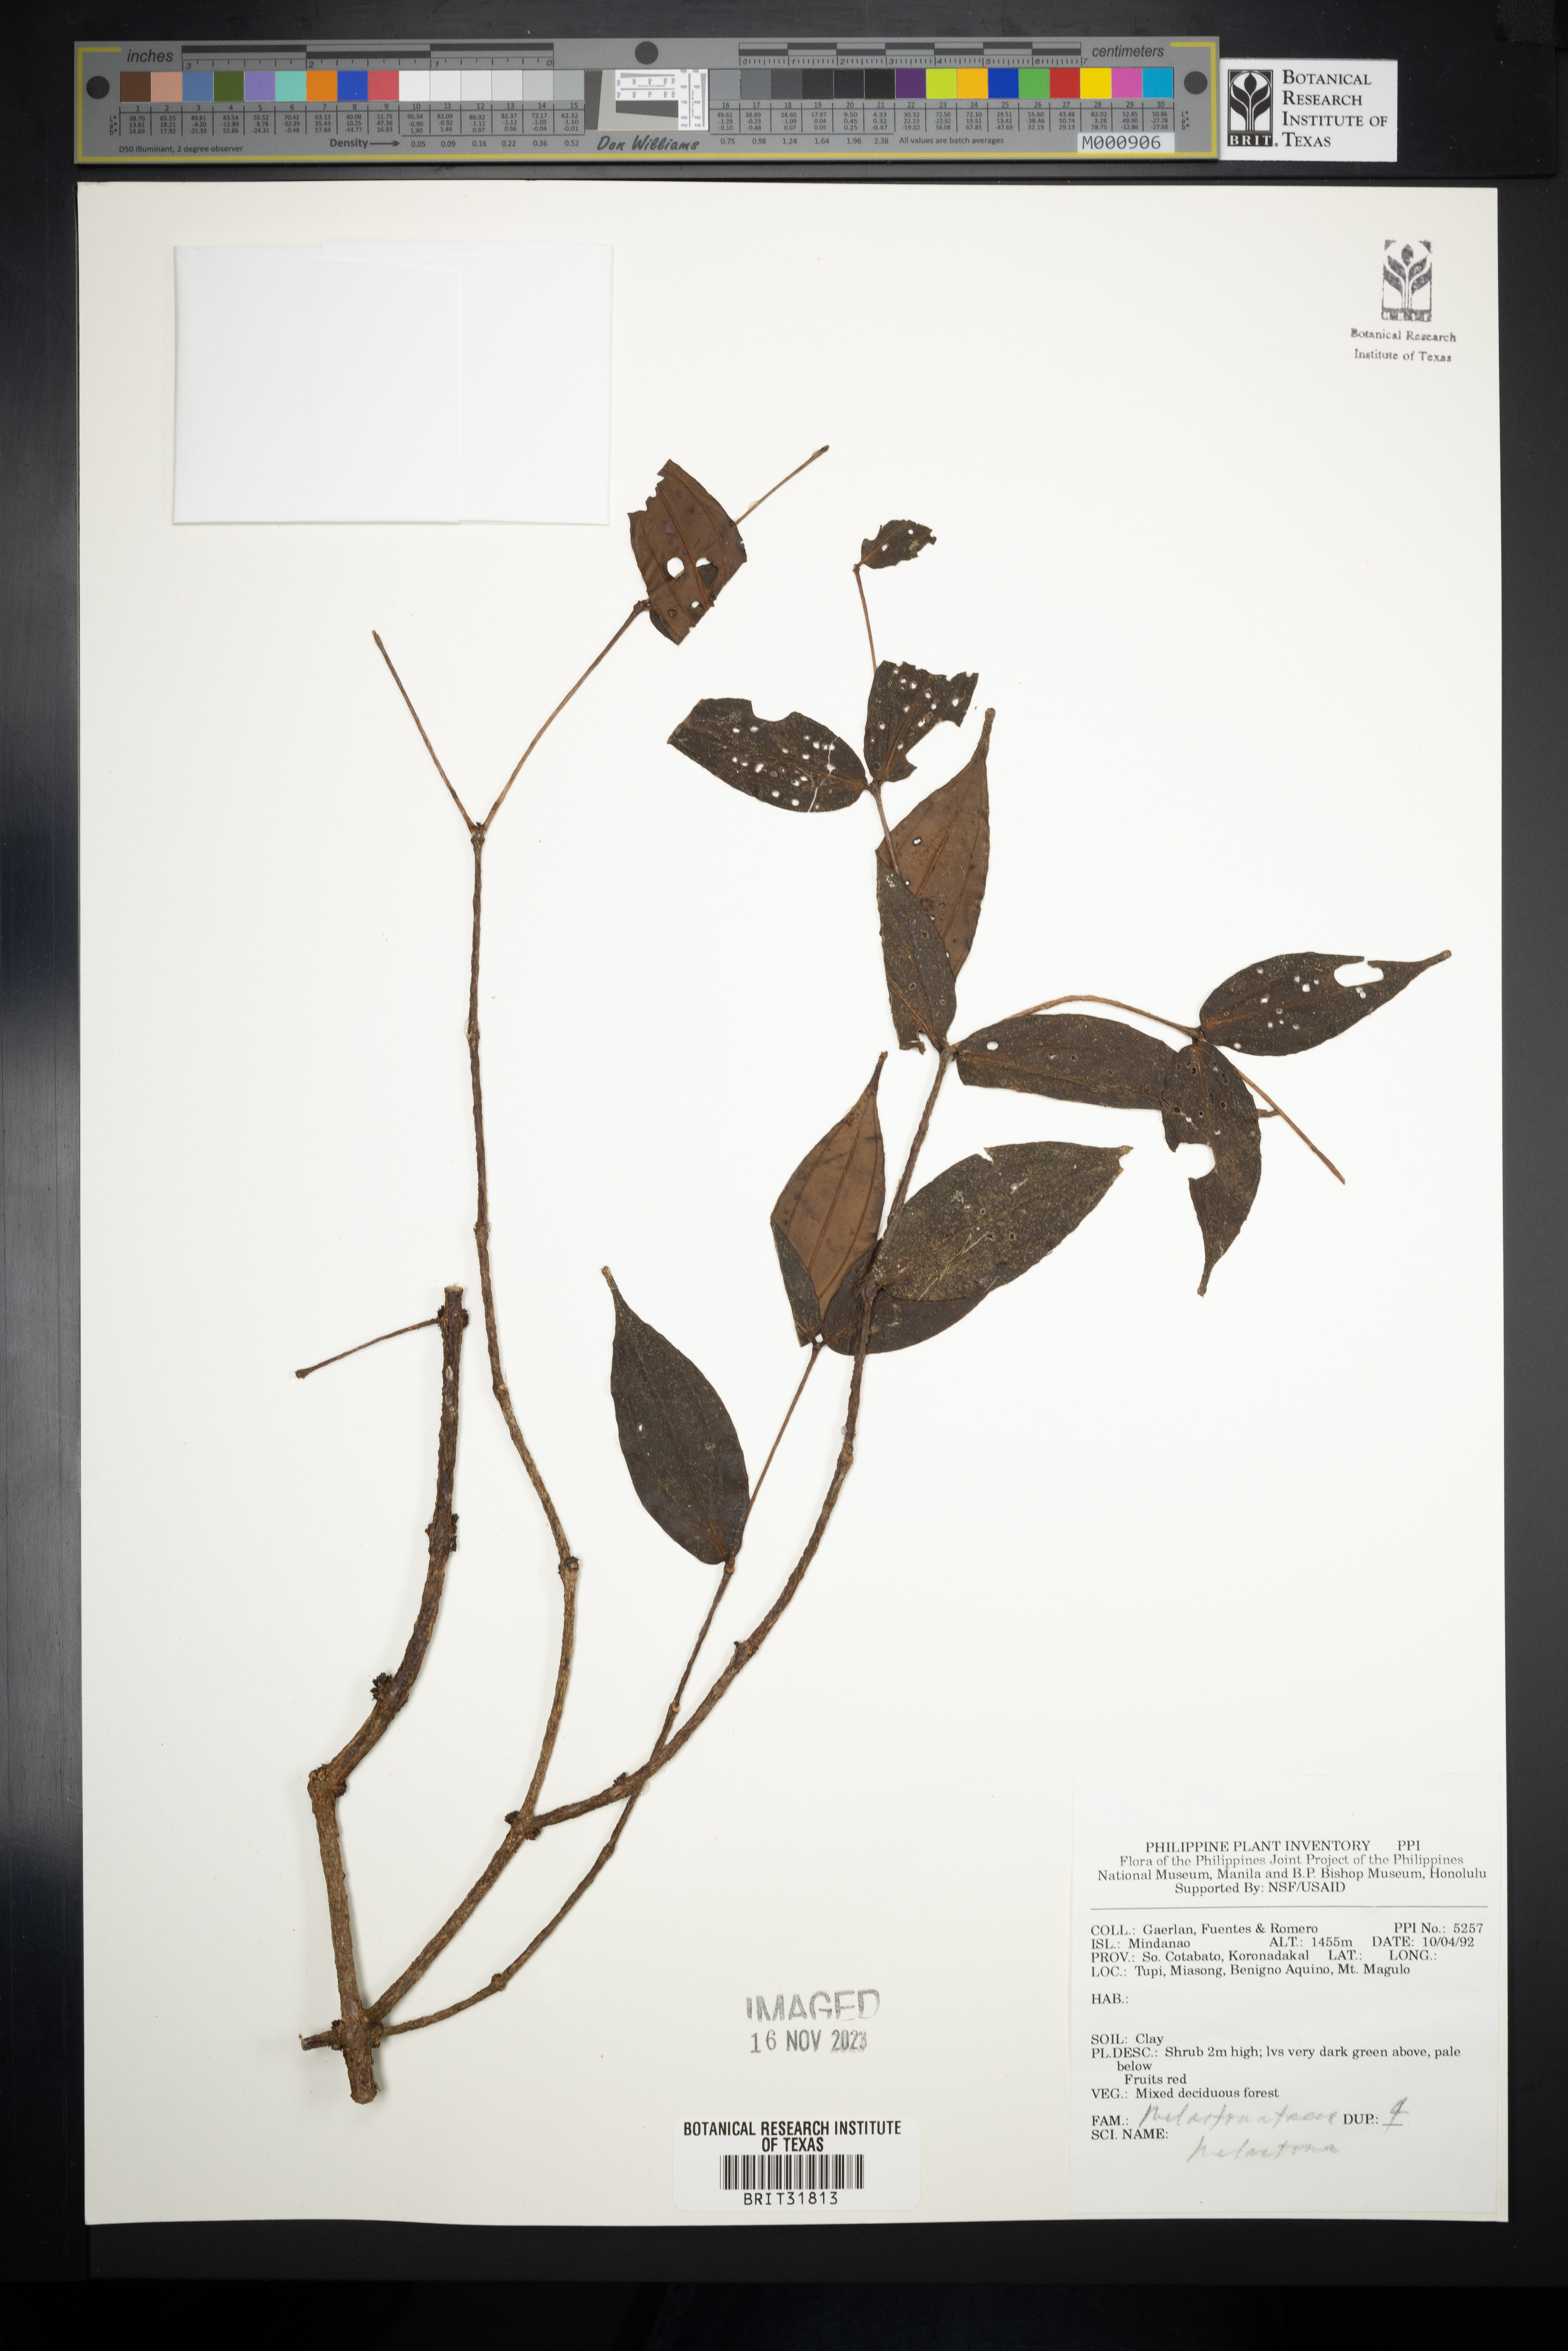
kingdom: Plantae
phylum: Tracheophyta
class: Magnoliopsida
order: Myrtales
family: Melastomataceae
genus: Melastoma
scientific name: Melastoma
